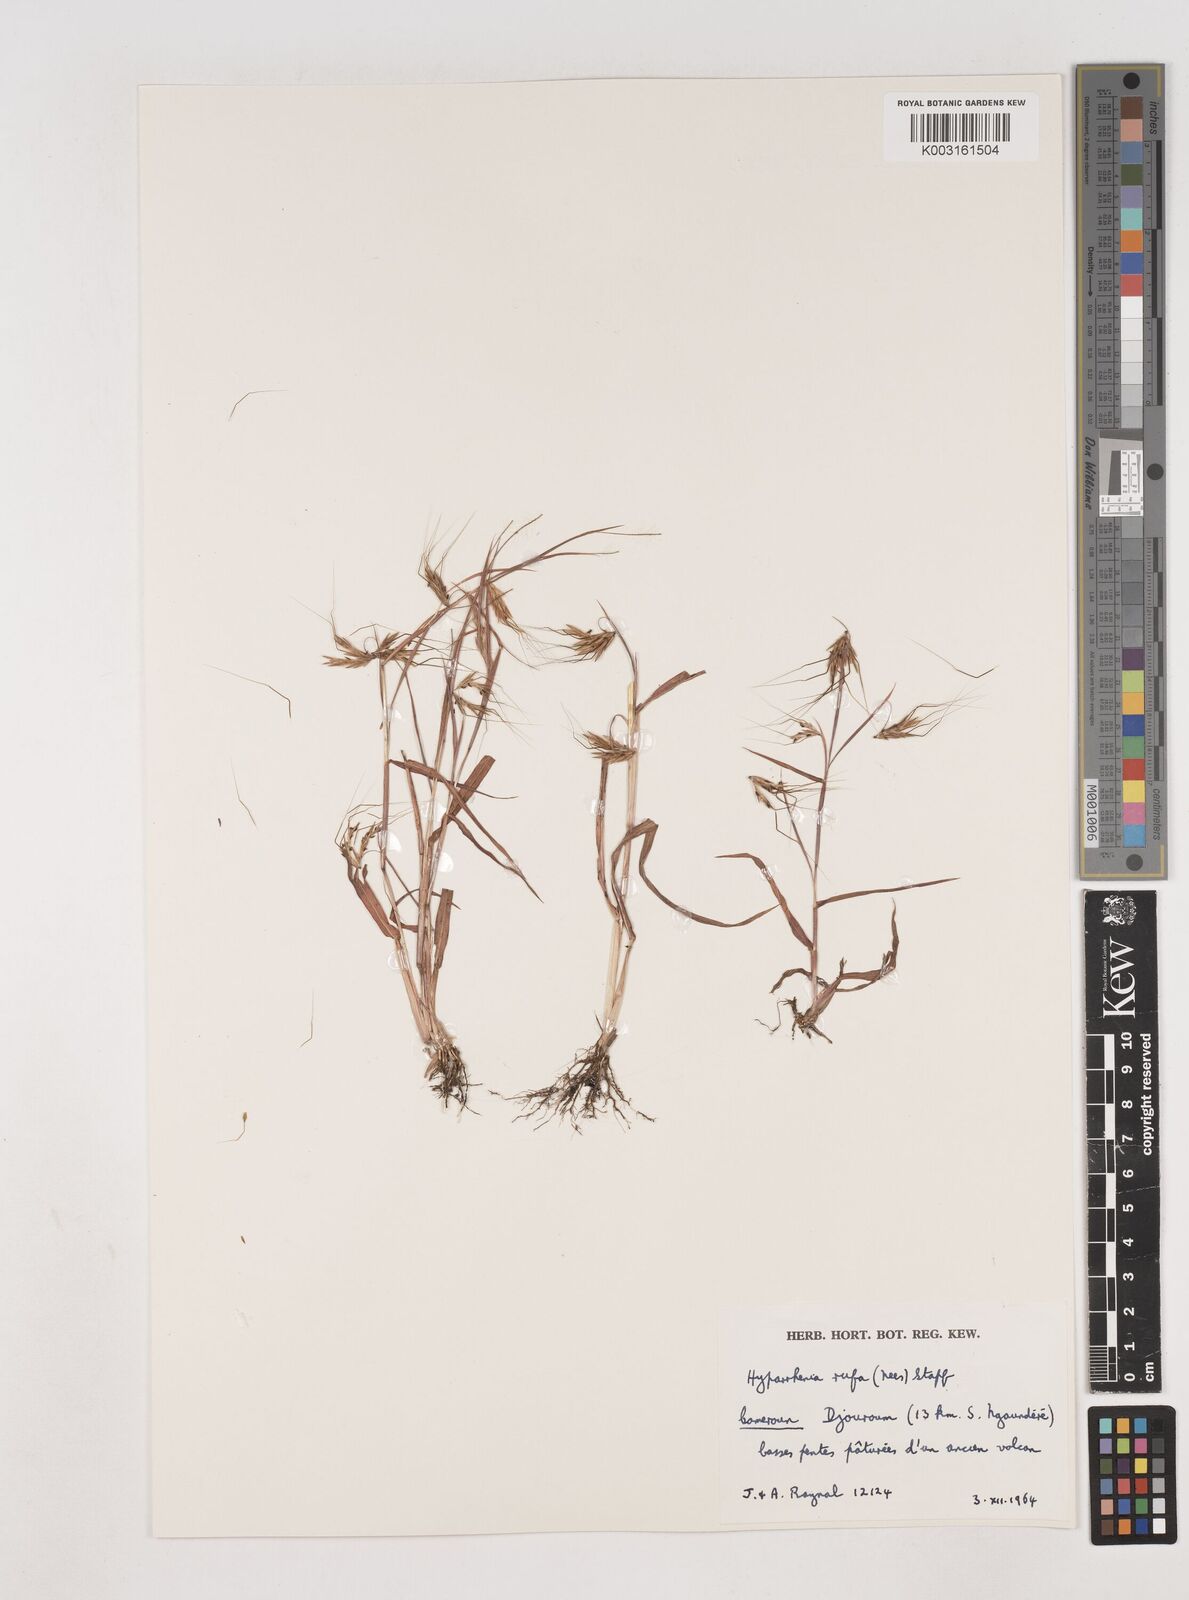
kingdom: Plantae
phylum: Tracheophyta
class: Liliopsida
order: Poales
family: Poaceae
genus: Hyparrhenia
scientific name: Hyparrhenia rufa
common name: Jaraguagrass
